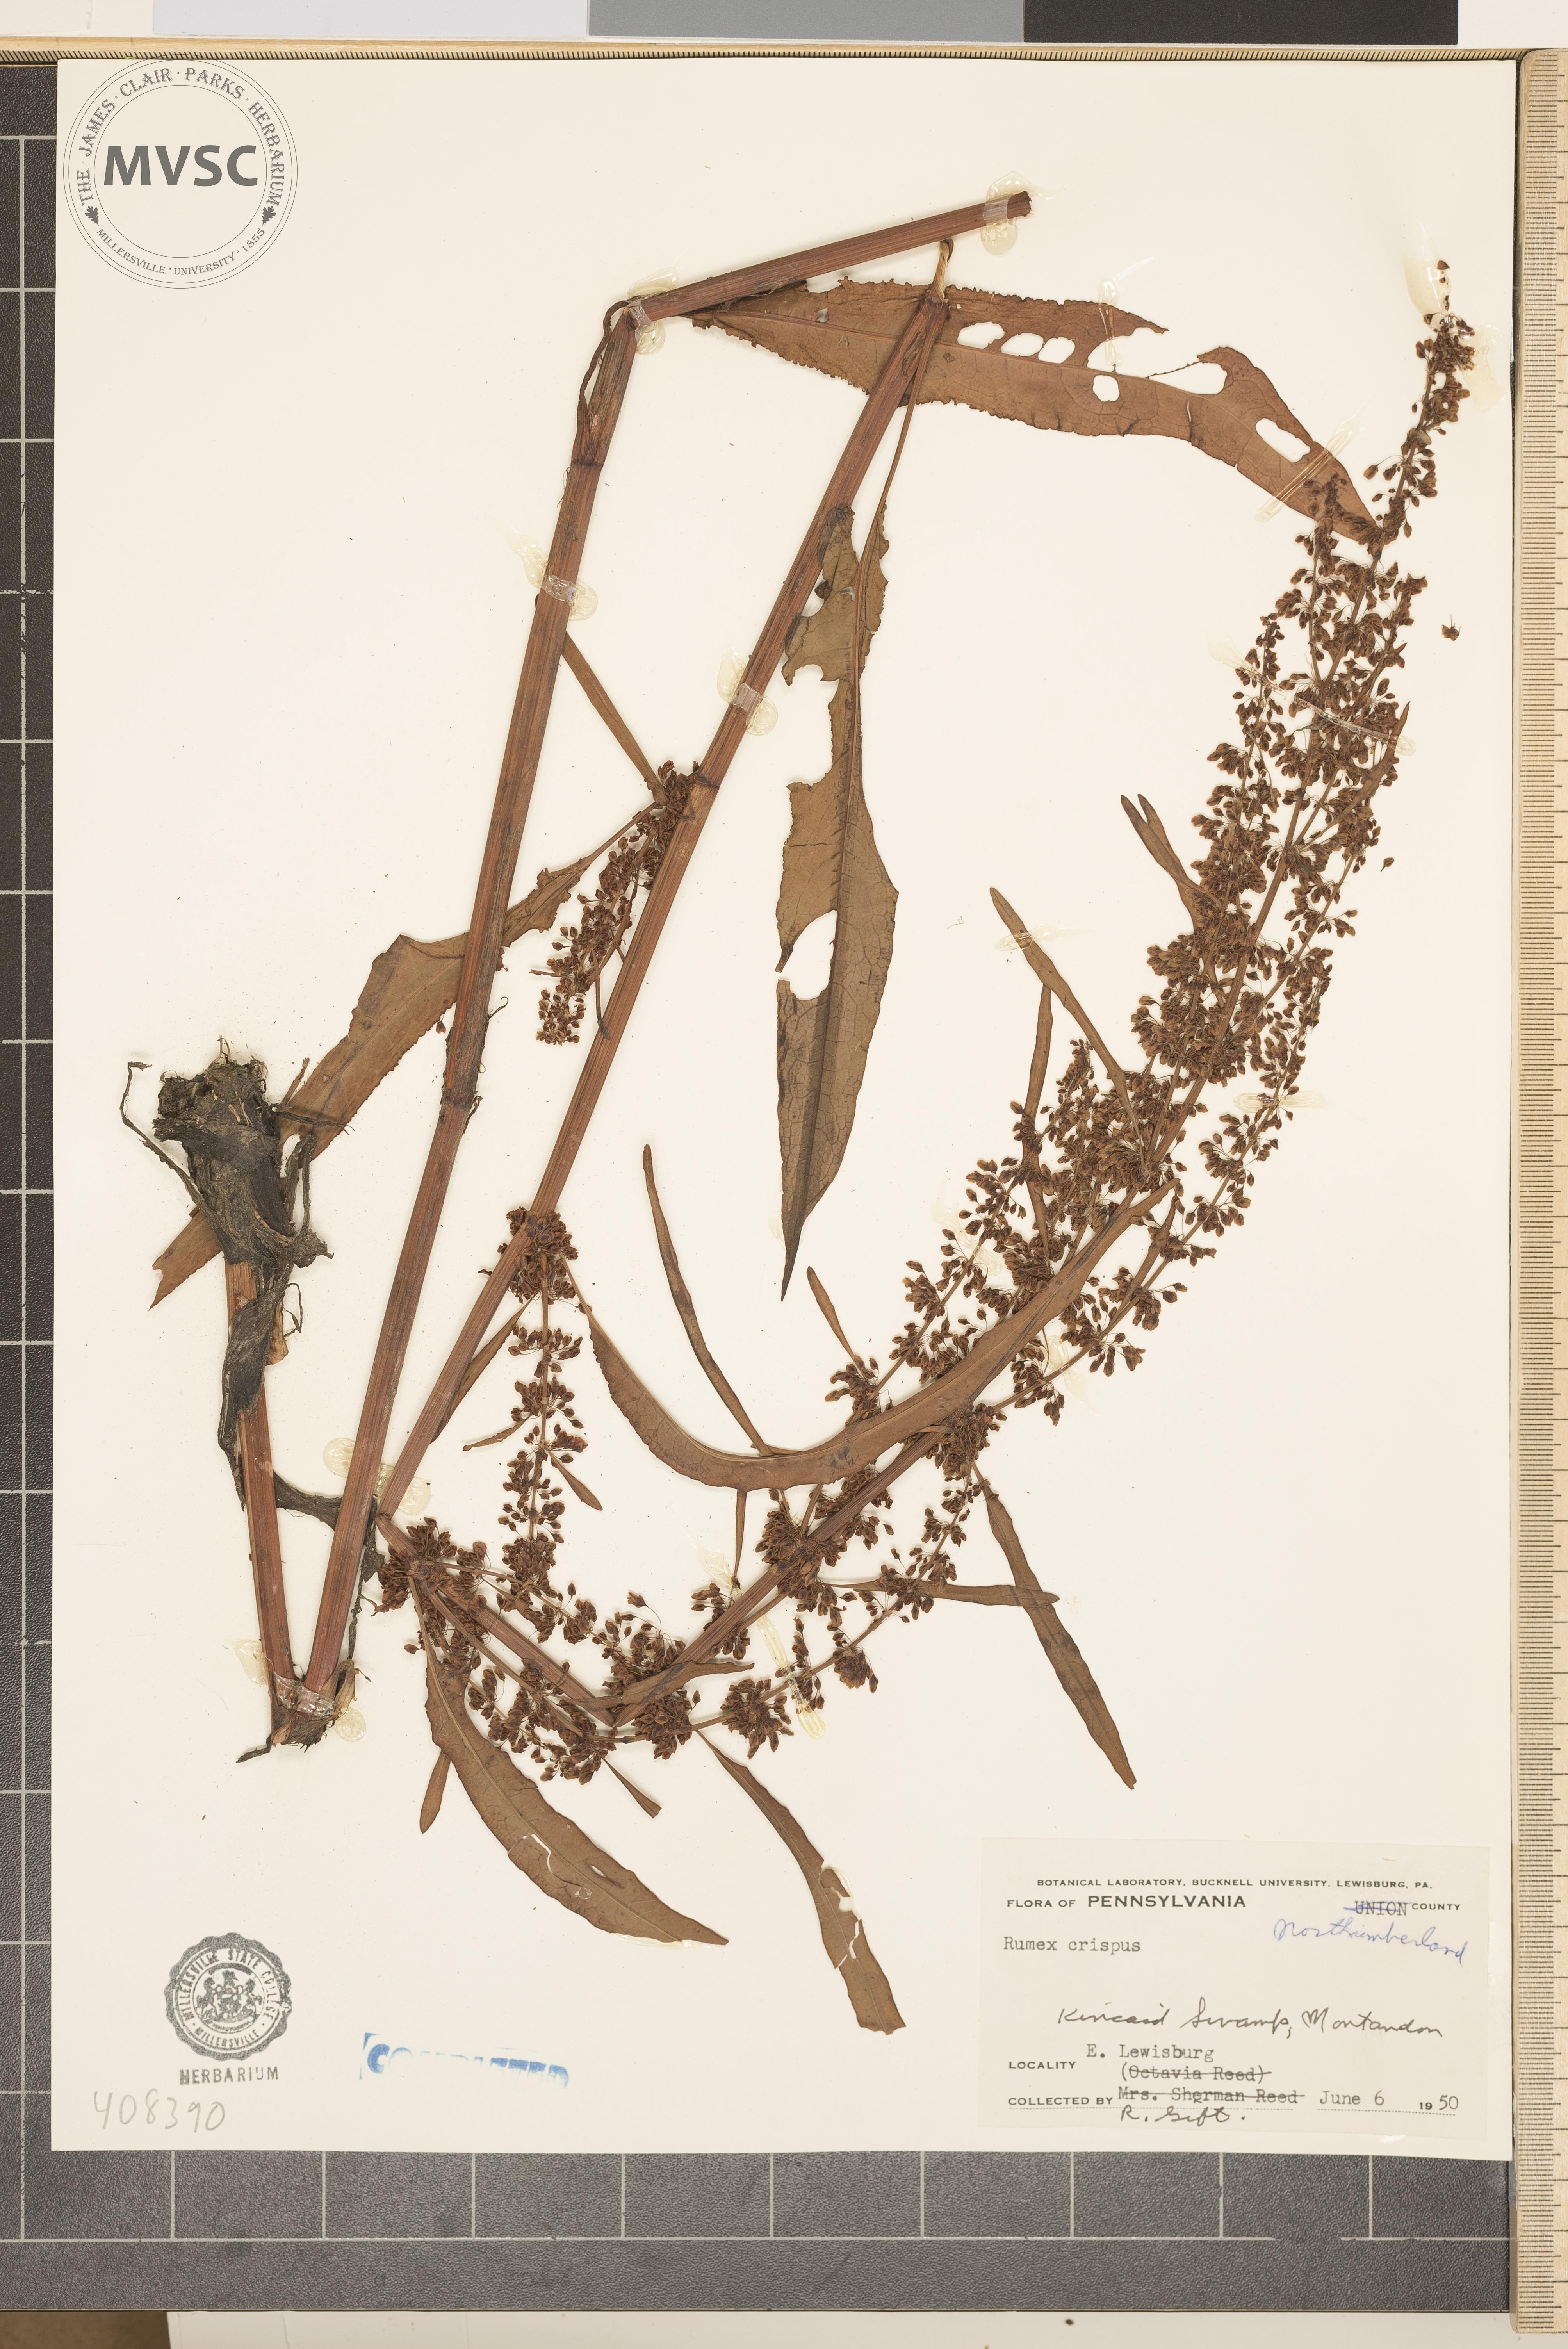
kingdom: Plantae
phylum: Tracheophyta
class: Magnoliopsida
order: Caryophyllales
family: Polygonaceae
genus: Rumex
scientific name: Rumex crispus
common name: Curled dock
